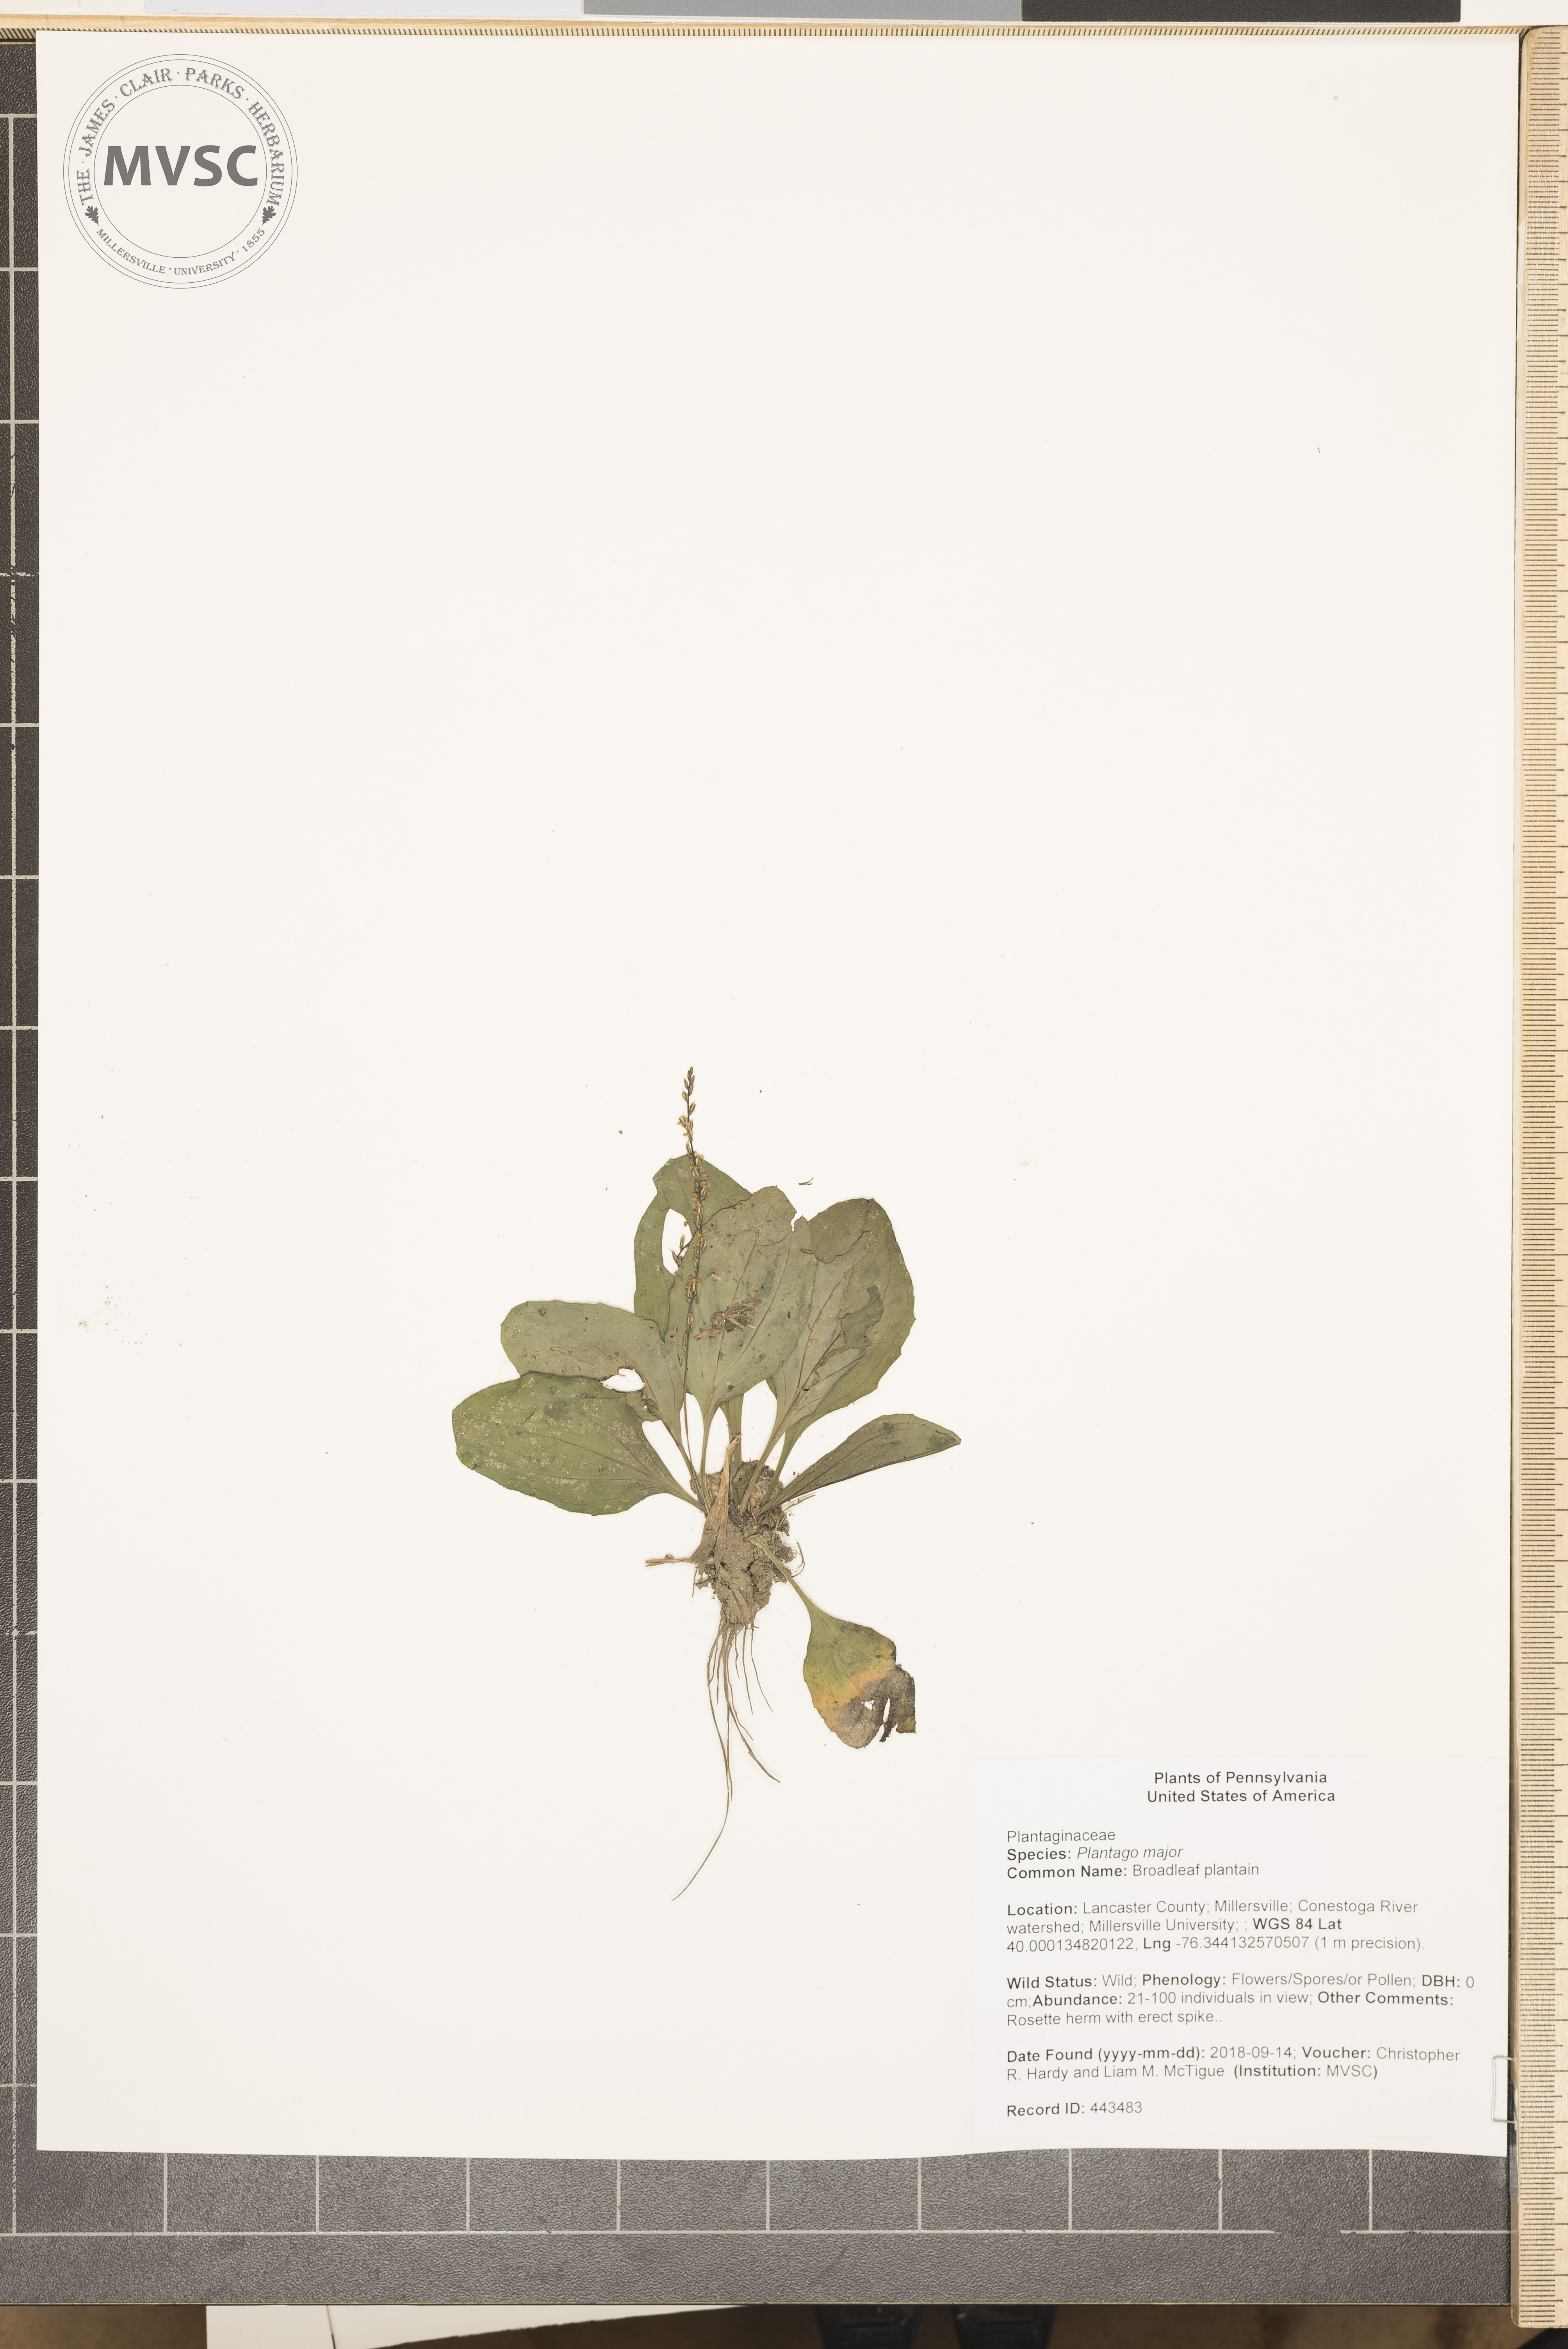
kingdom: Plantae
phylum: Tracheophyta
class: Magnoliopsida
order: Lamiales
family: Plantaginaceae
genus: Plantago
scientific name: Plantago major
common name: Broadleaf plantain
